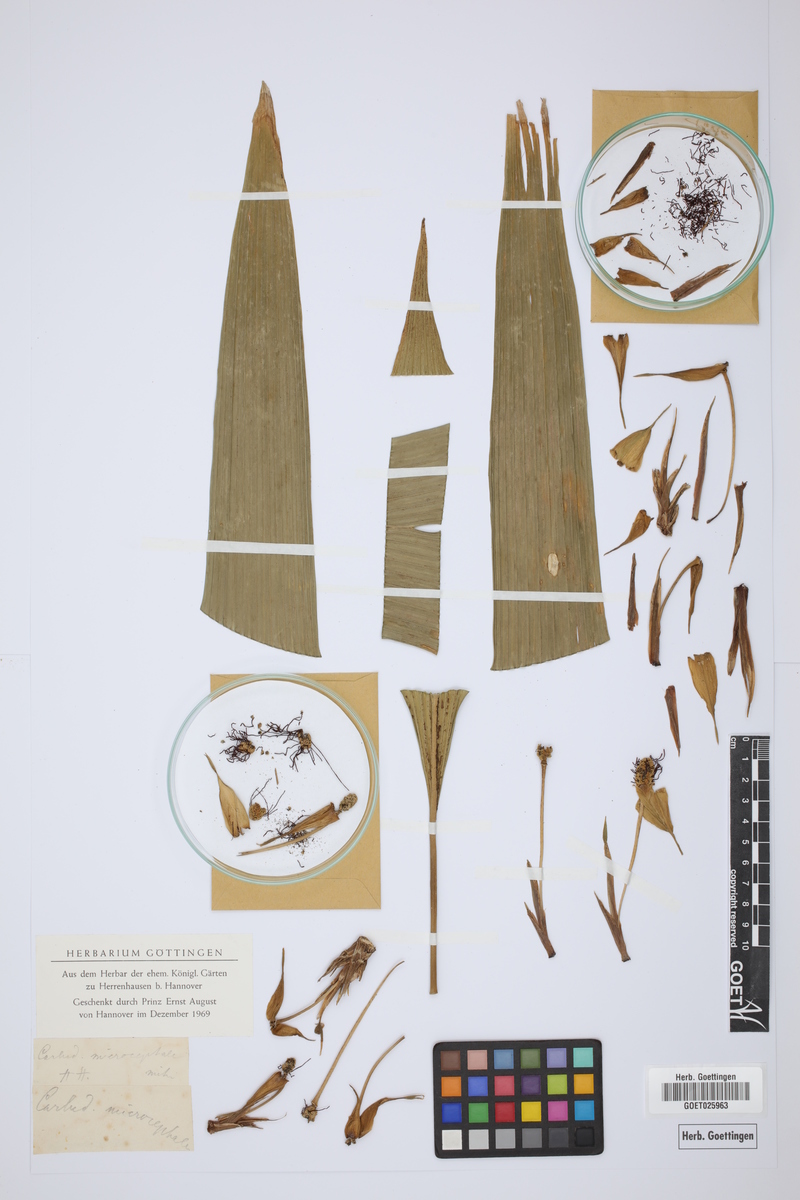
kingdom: Plantae
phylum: Tracheophyta
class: Liliopsida
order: Pandanales
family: Cyclanthaceae
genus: Dicranopygium
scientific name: Dicranopygium microcephalum
